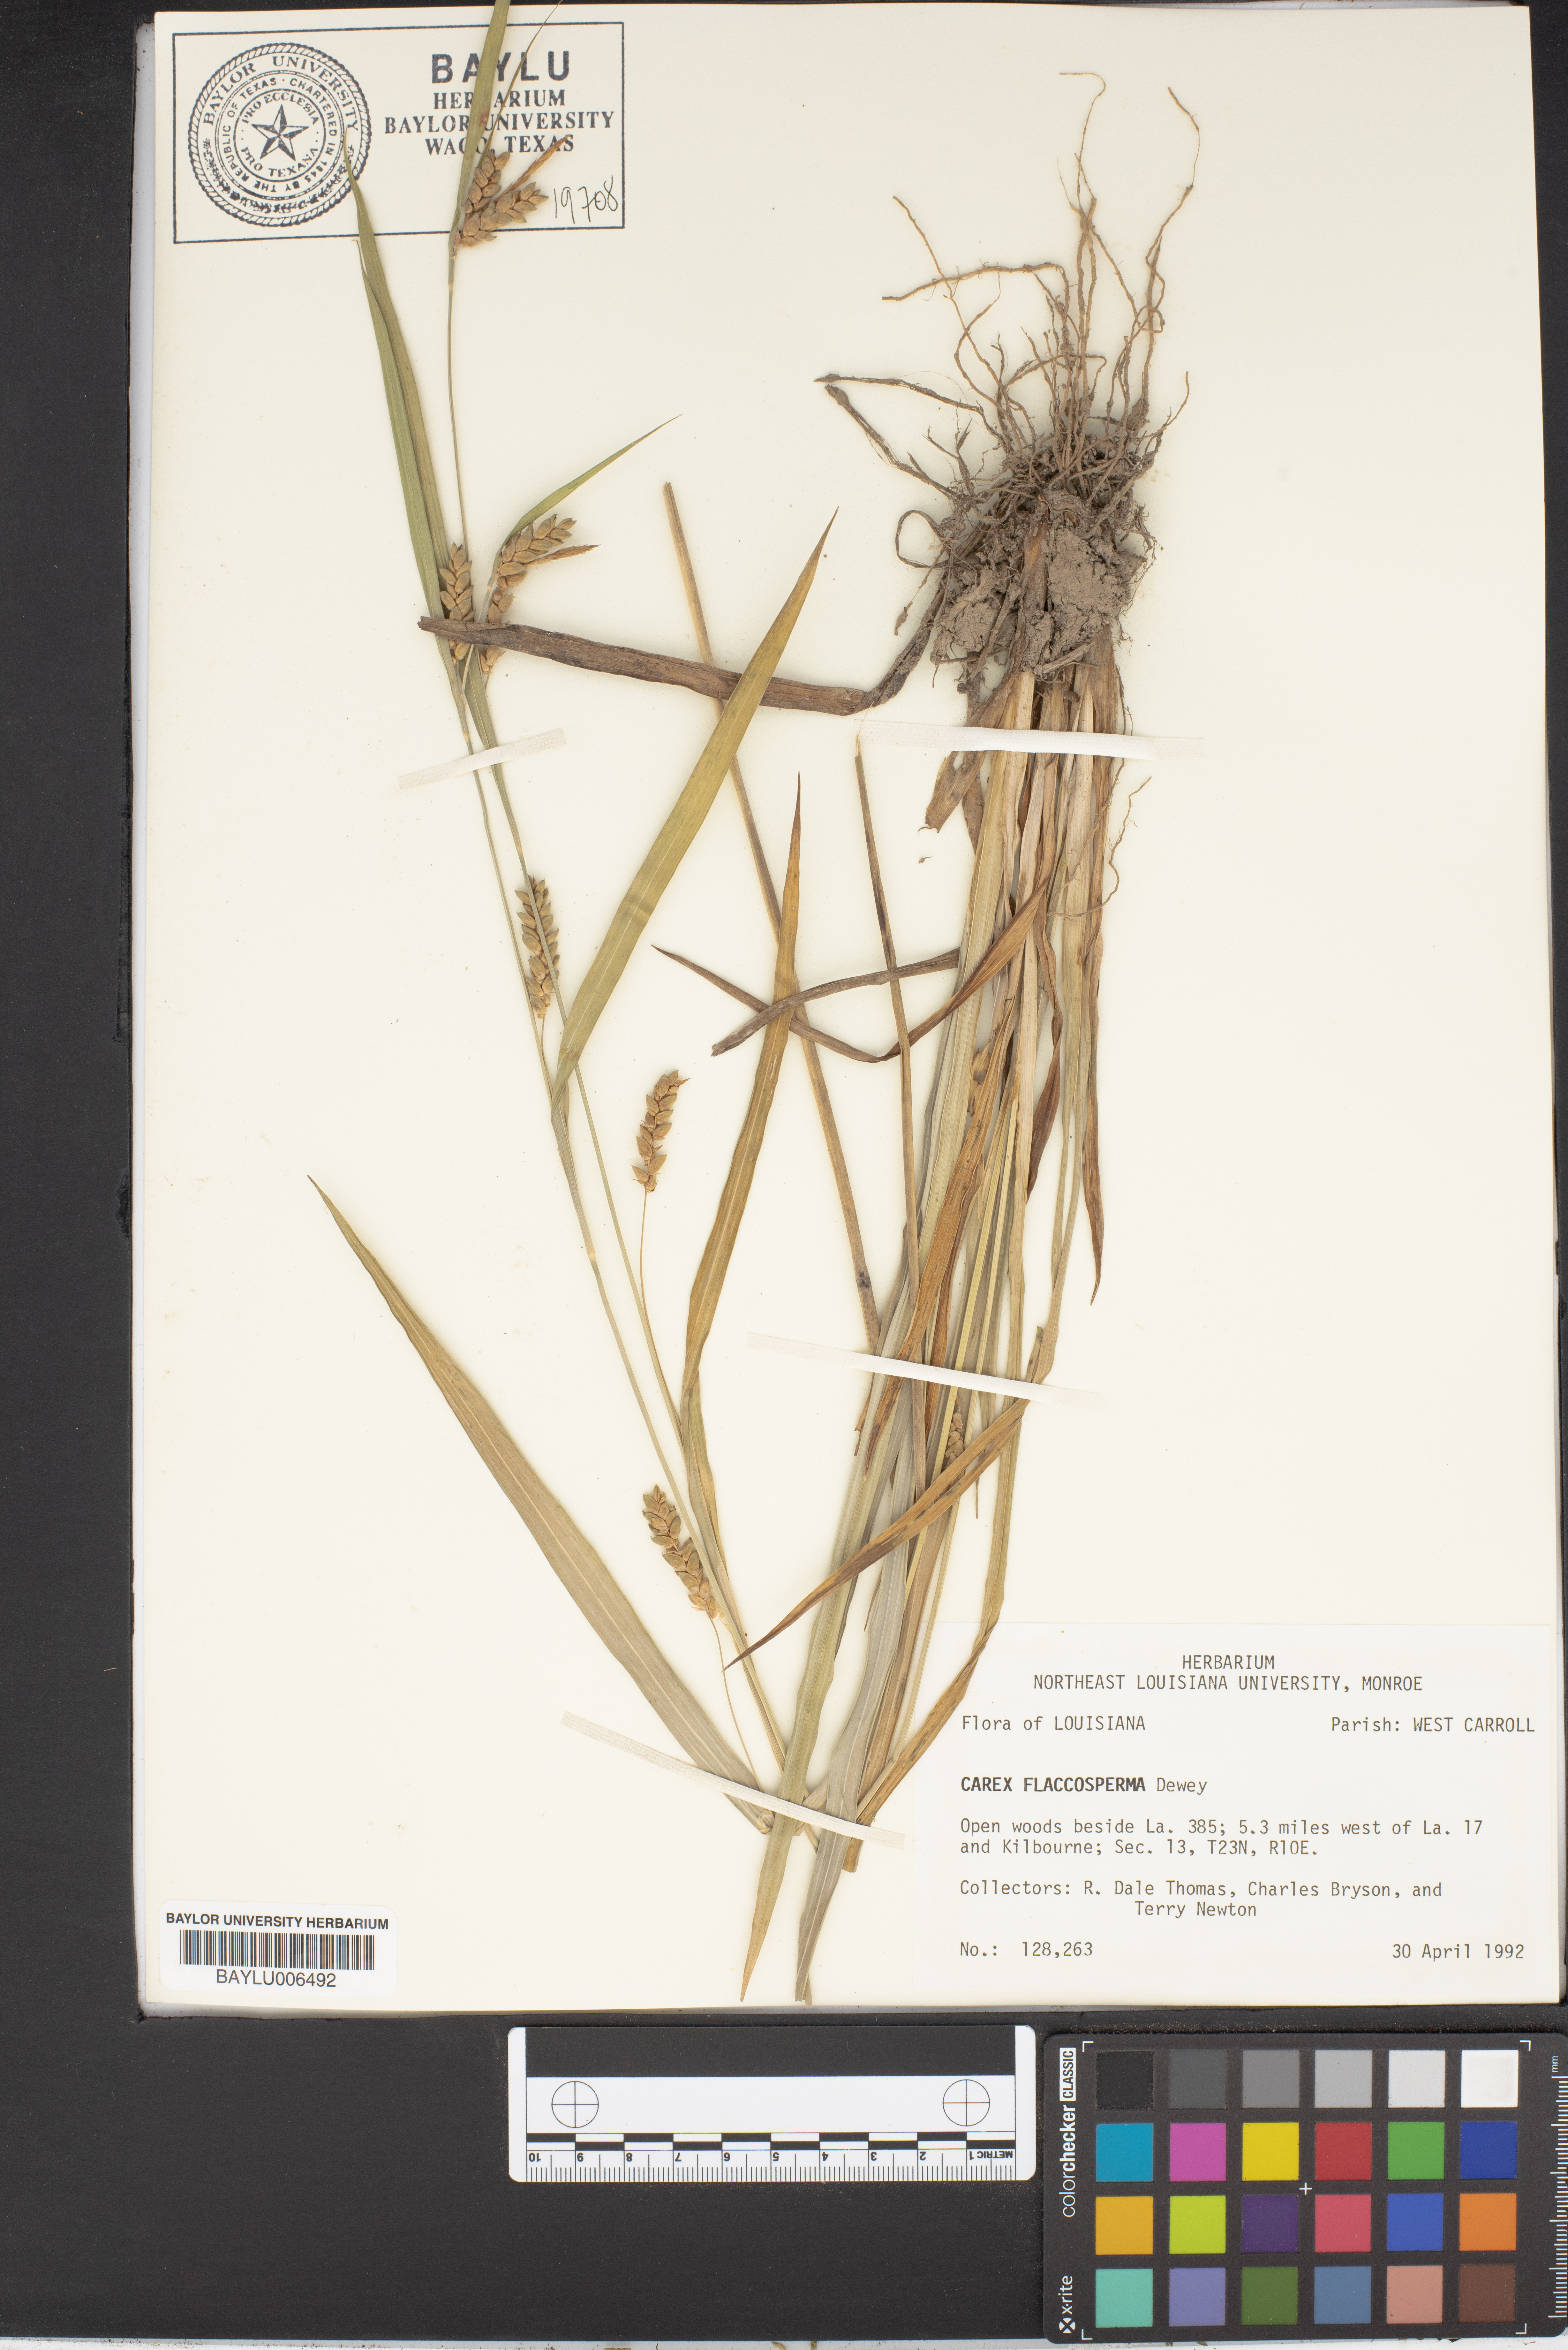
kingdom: Plantae
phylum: Tracheophyta
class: Liliopsida
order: Poales
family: Cyperaceae
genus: Carex
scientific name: Carex flaccosperma
